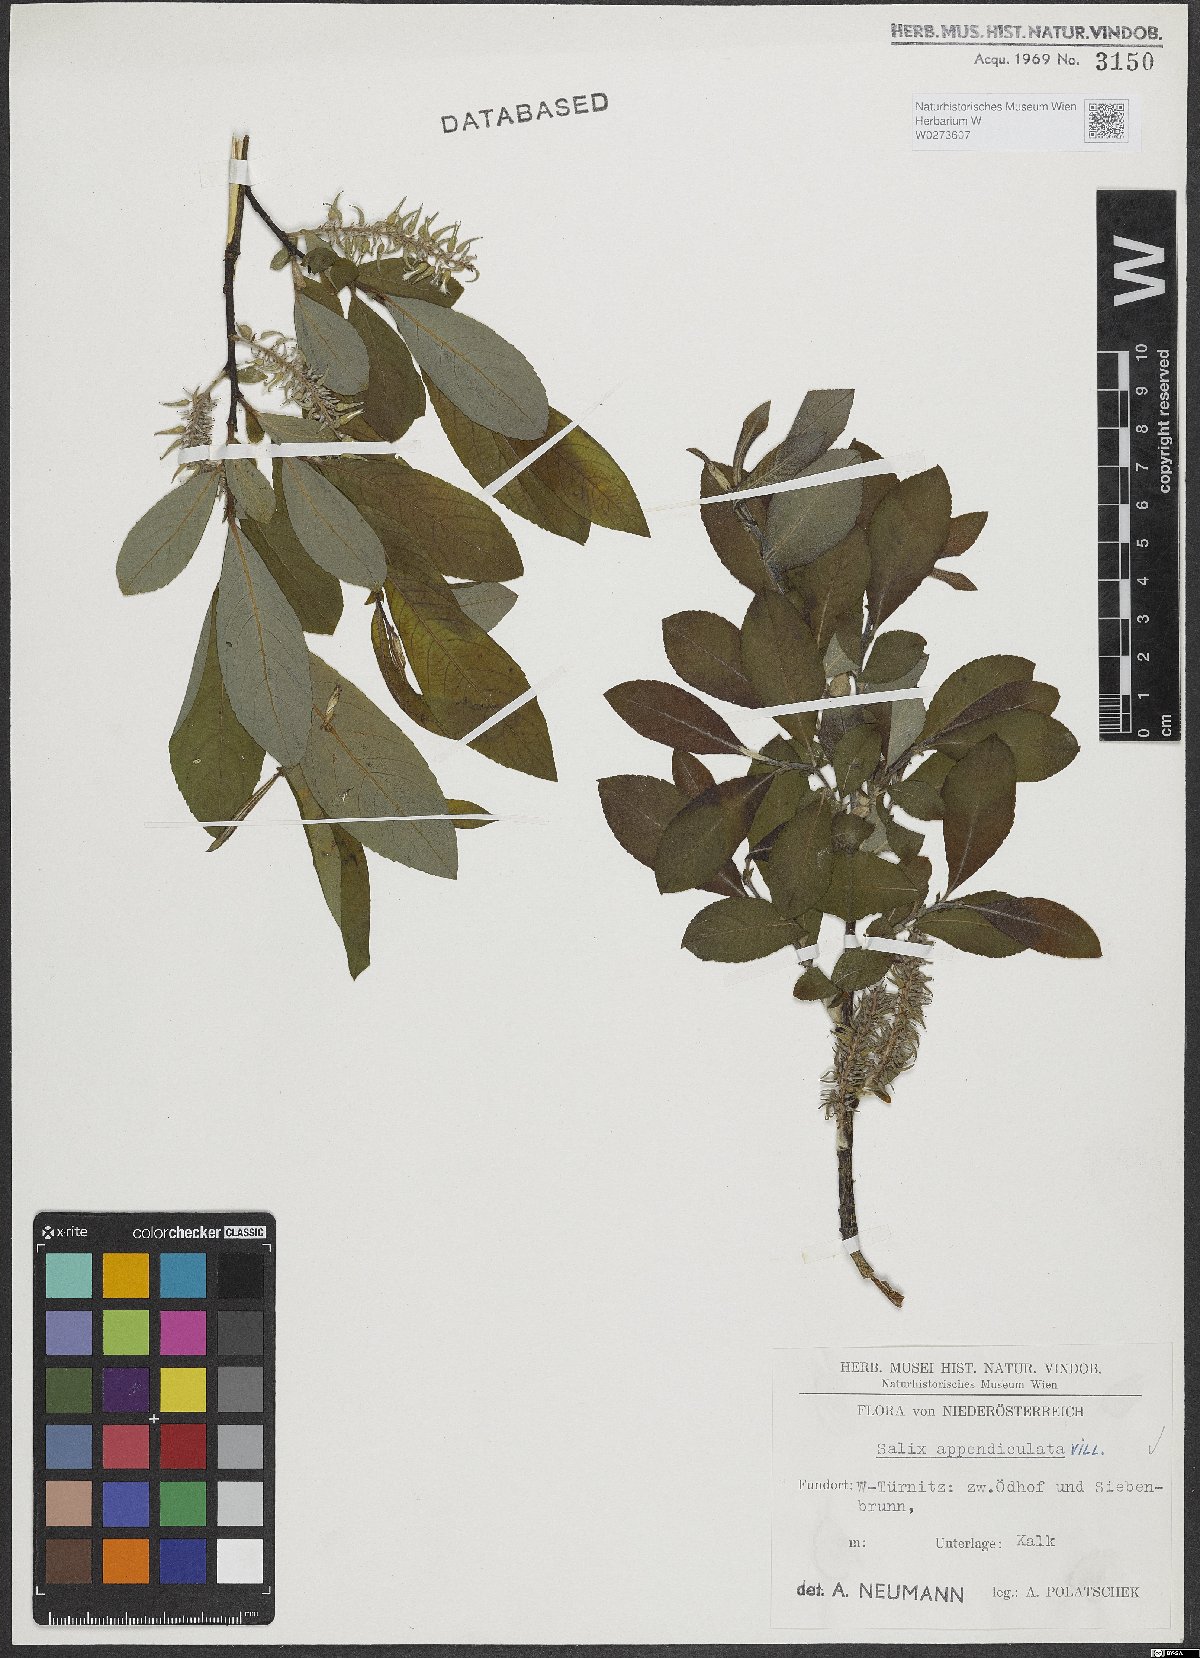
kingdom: Plantae
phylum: Tracheophyta
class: Magnoliopsida
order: Malpighiales
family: Salicaceae
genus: Salix
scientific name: Salix appendiculata
